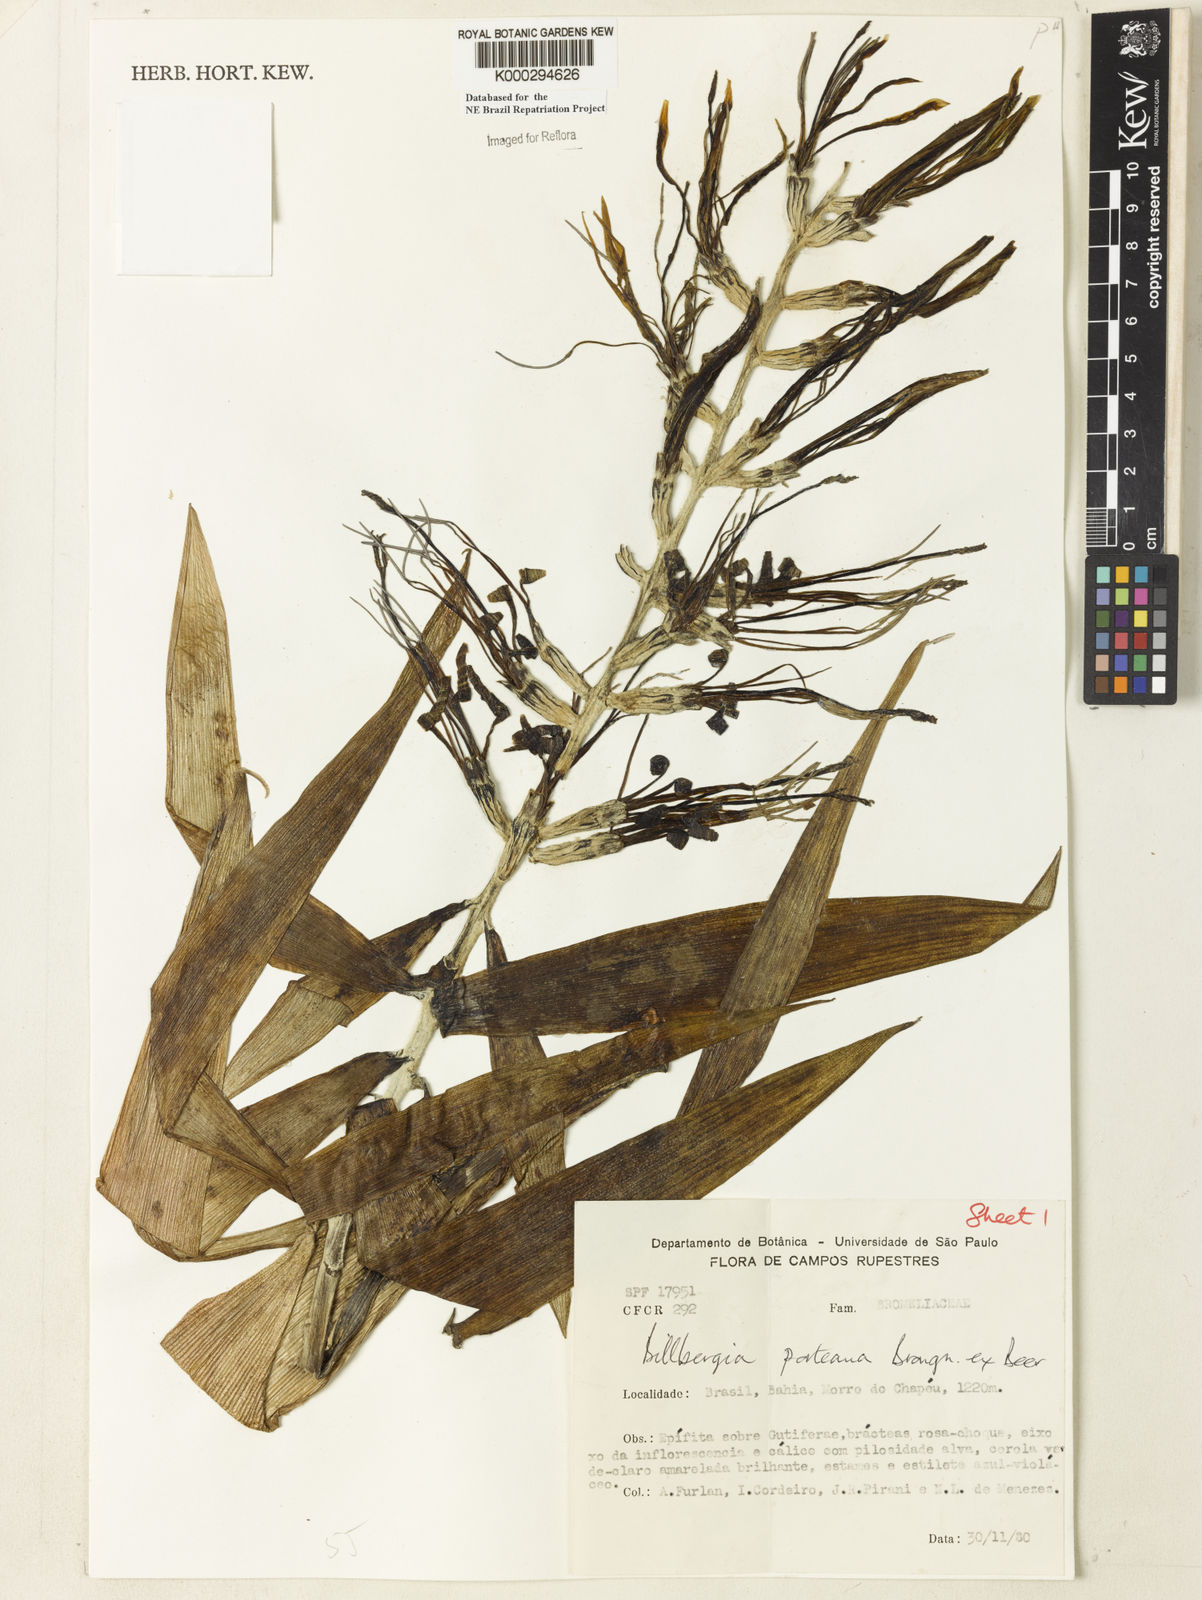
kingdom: Plantae
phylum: Tracheophyta
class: Liliopsida
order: Poales
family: Bromeliaceae
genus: Billbergia
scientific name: Billbergia porteana
